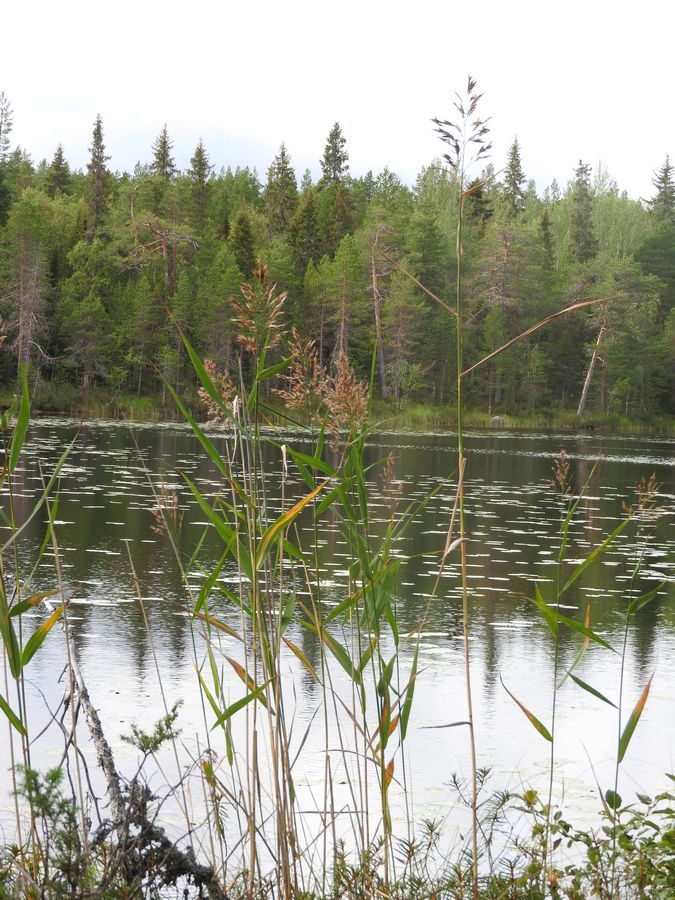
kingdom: Plantae
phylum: Tracheophyta
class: Liliopsida
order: Poales
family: Poaceae
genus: Phragmites
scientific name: Phragmites australis
